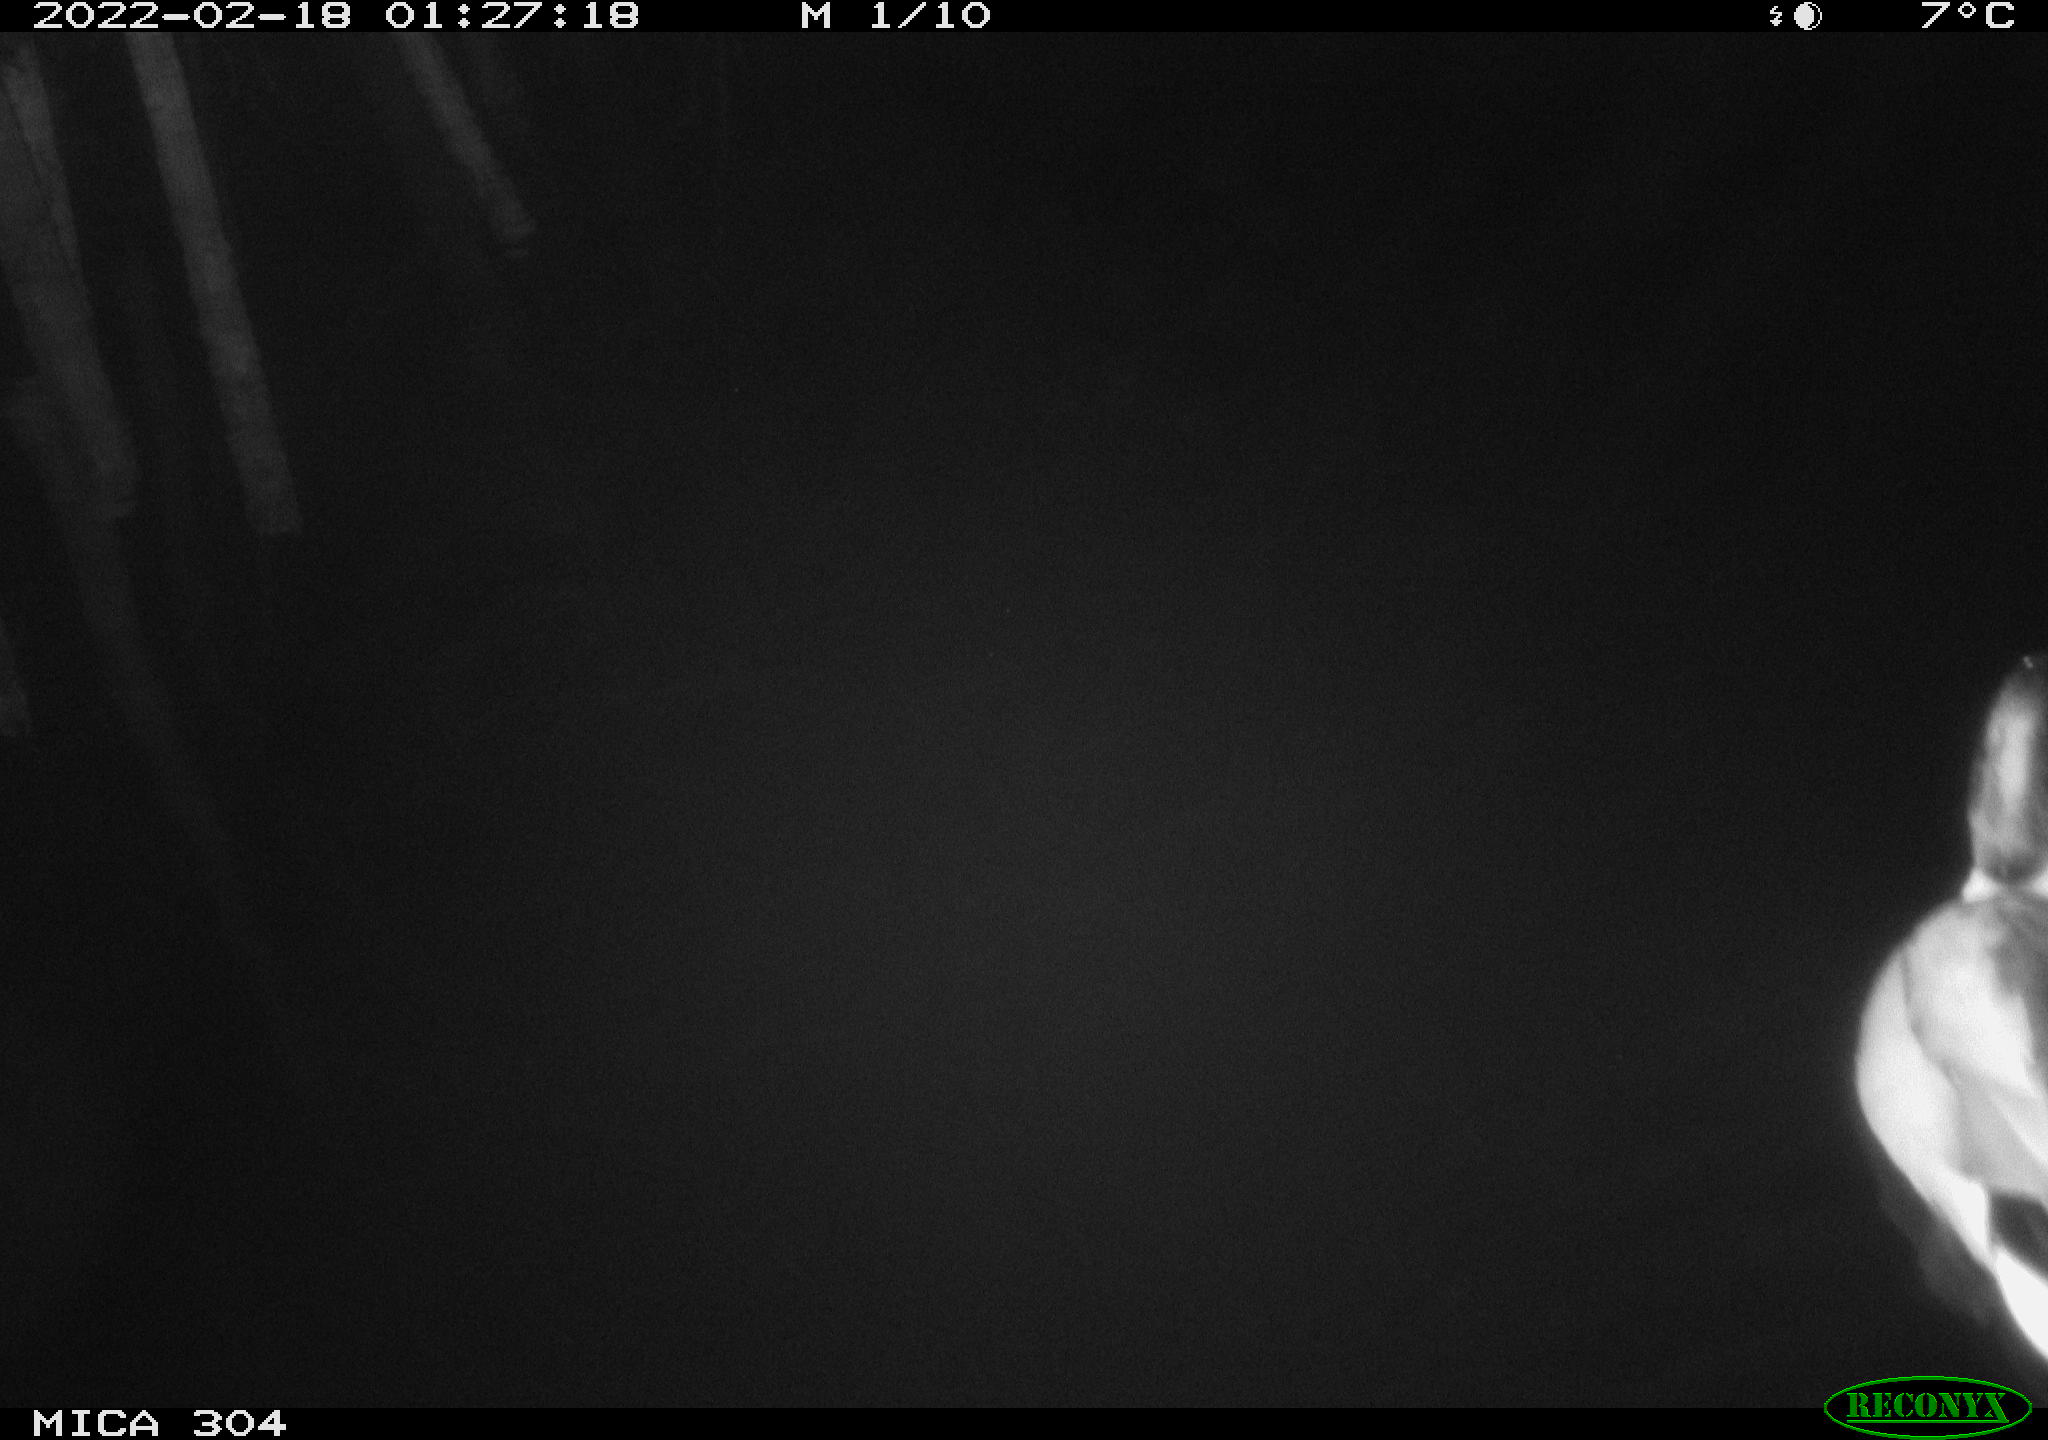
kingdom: Animalia
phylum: Chordata
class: Aves
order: Anseriformes
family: Anatidae
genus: Anas
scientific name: Anas platyrhynchos
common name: Mallard
